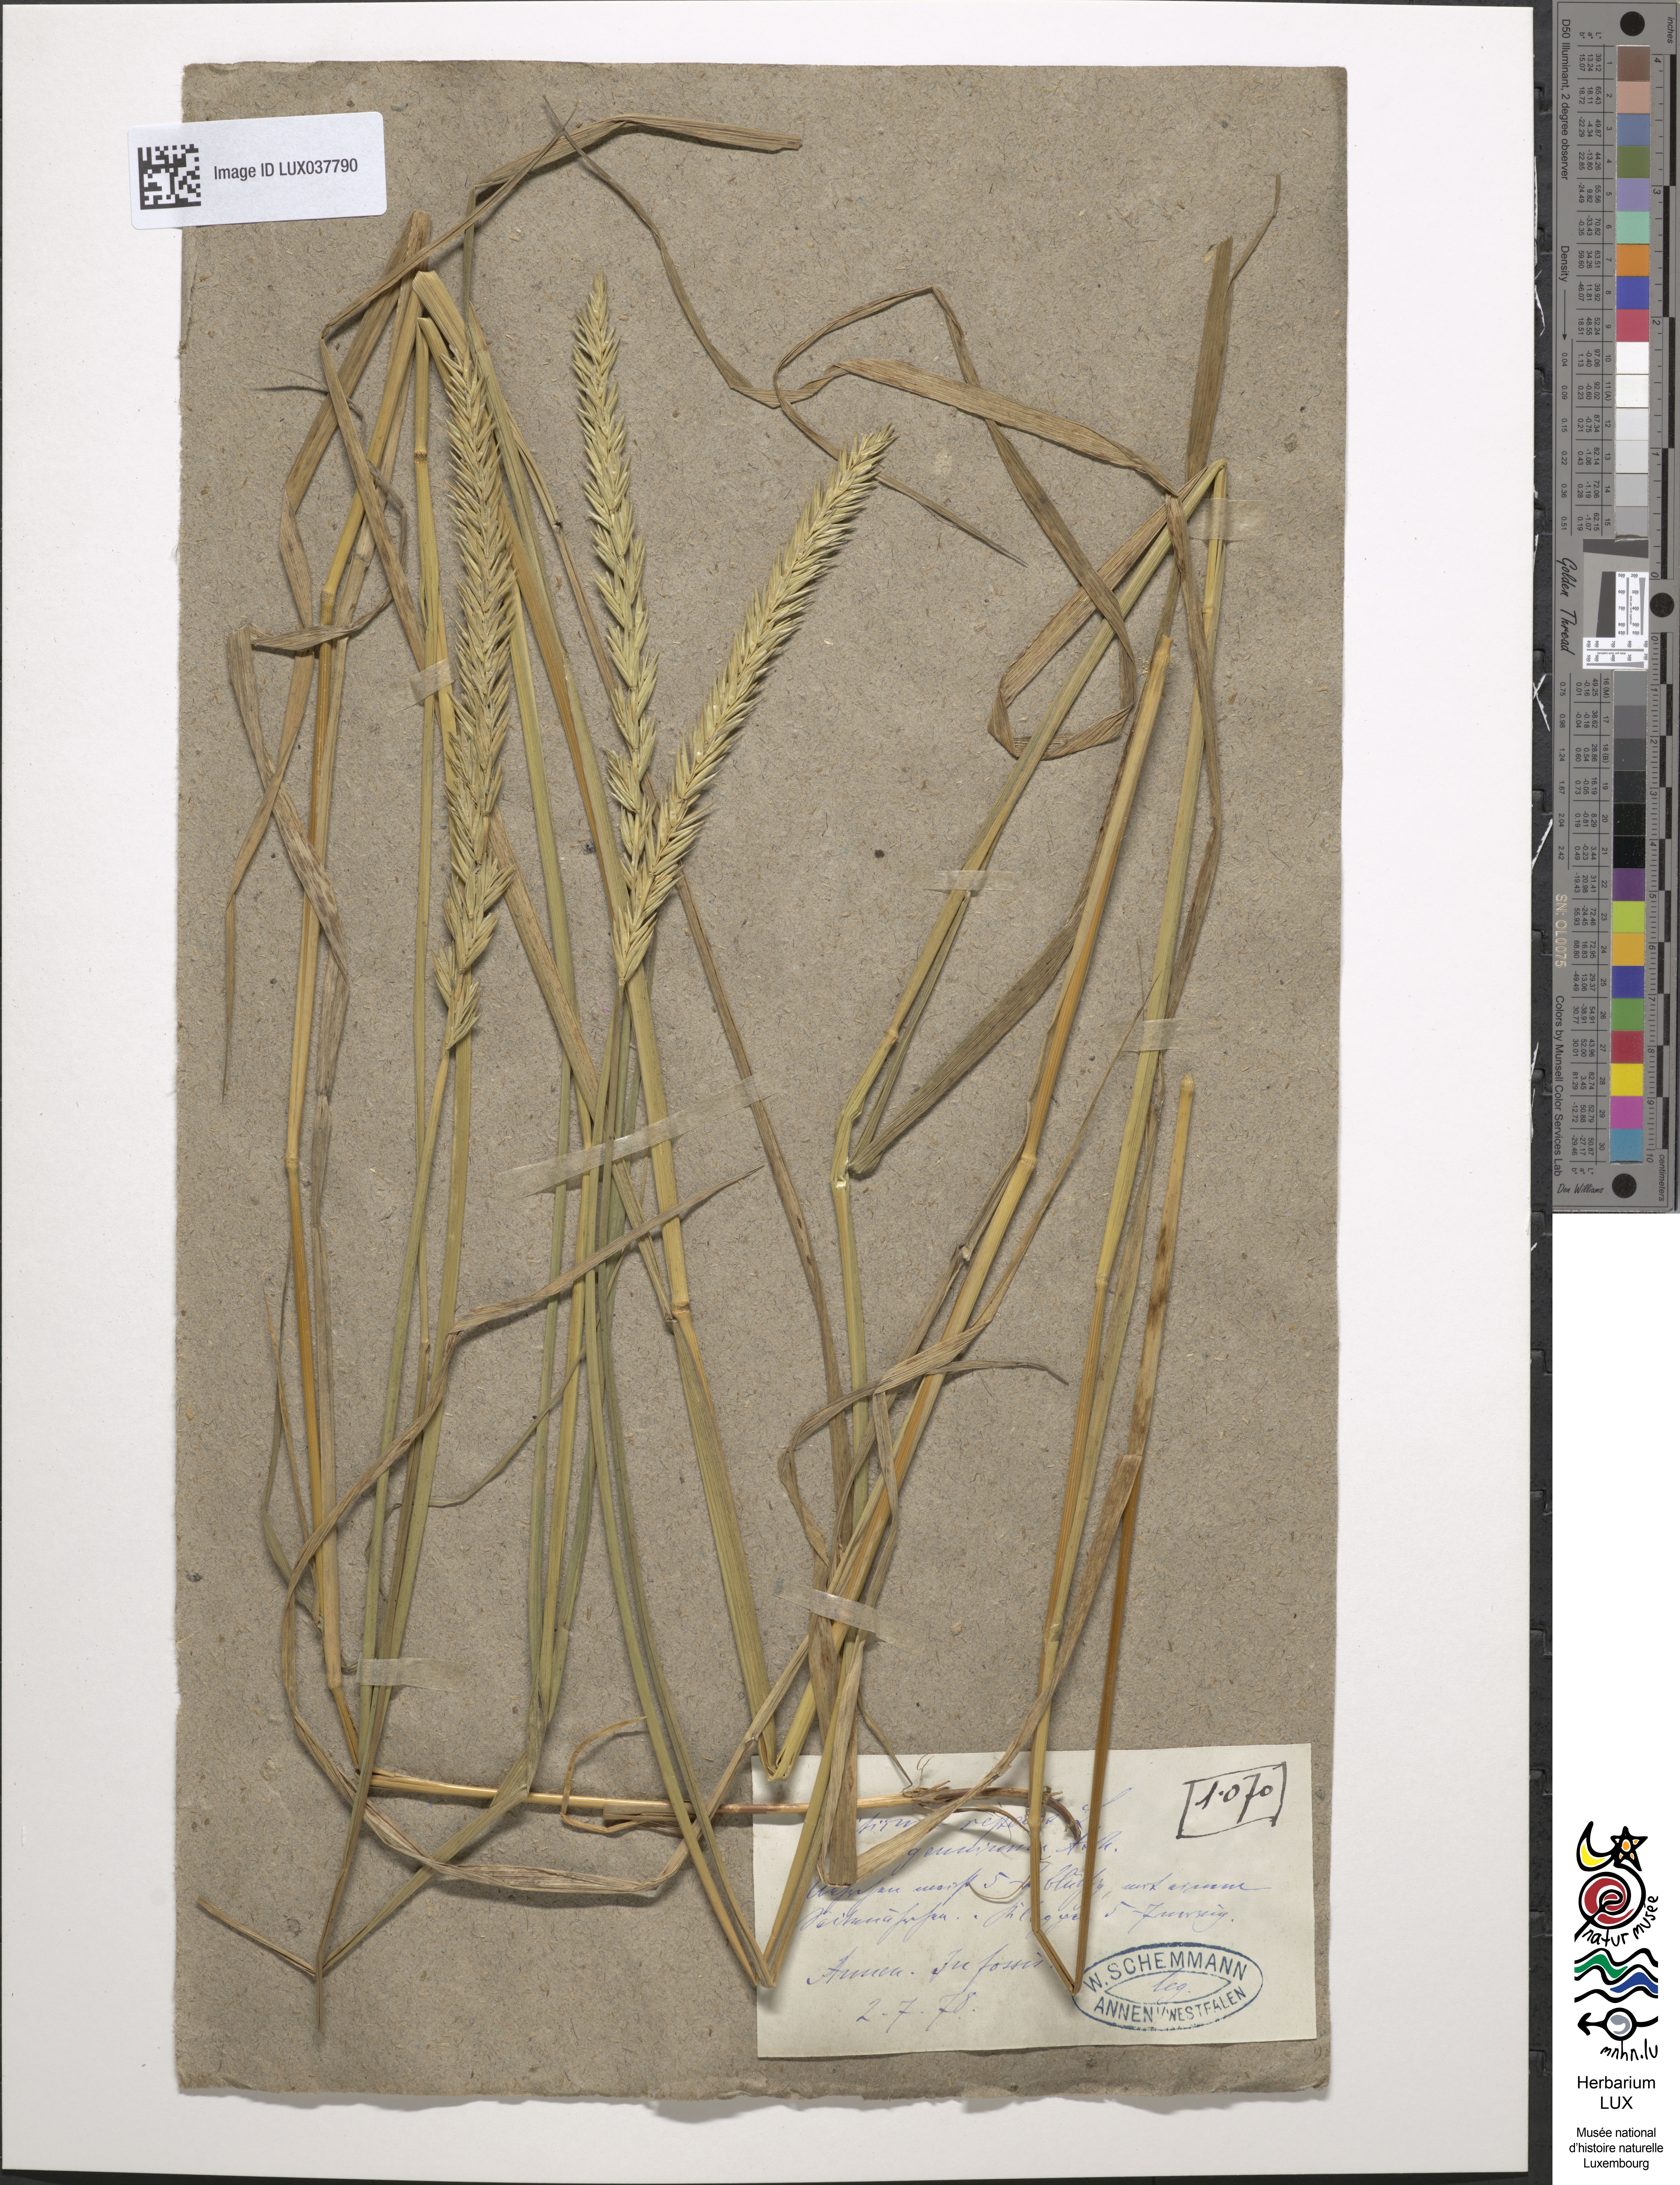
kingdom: Plantae
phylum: Tracheophyta
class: Liliopsida
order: Poales
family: Poaceae
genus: Elymus
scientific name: Elymus repens
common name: Quackgrass
